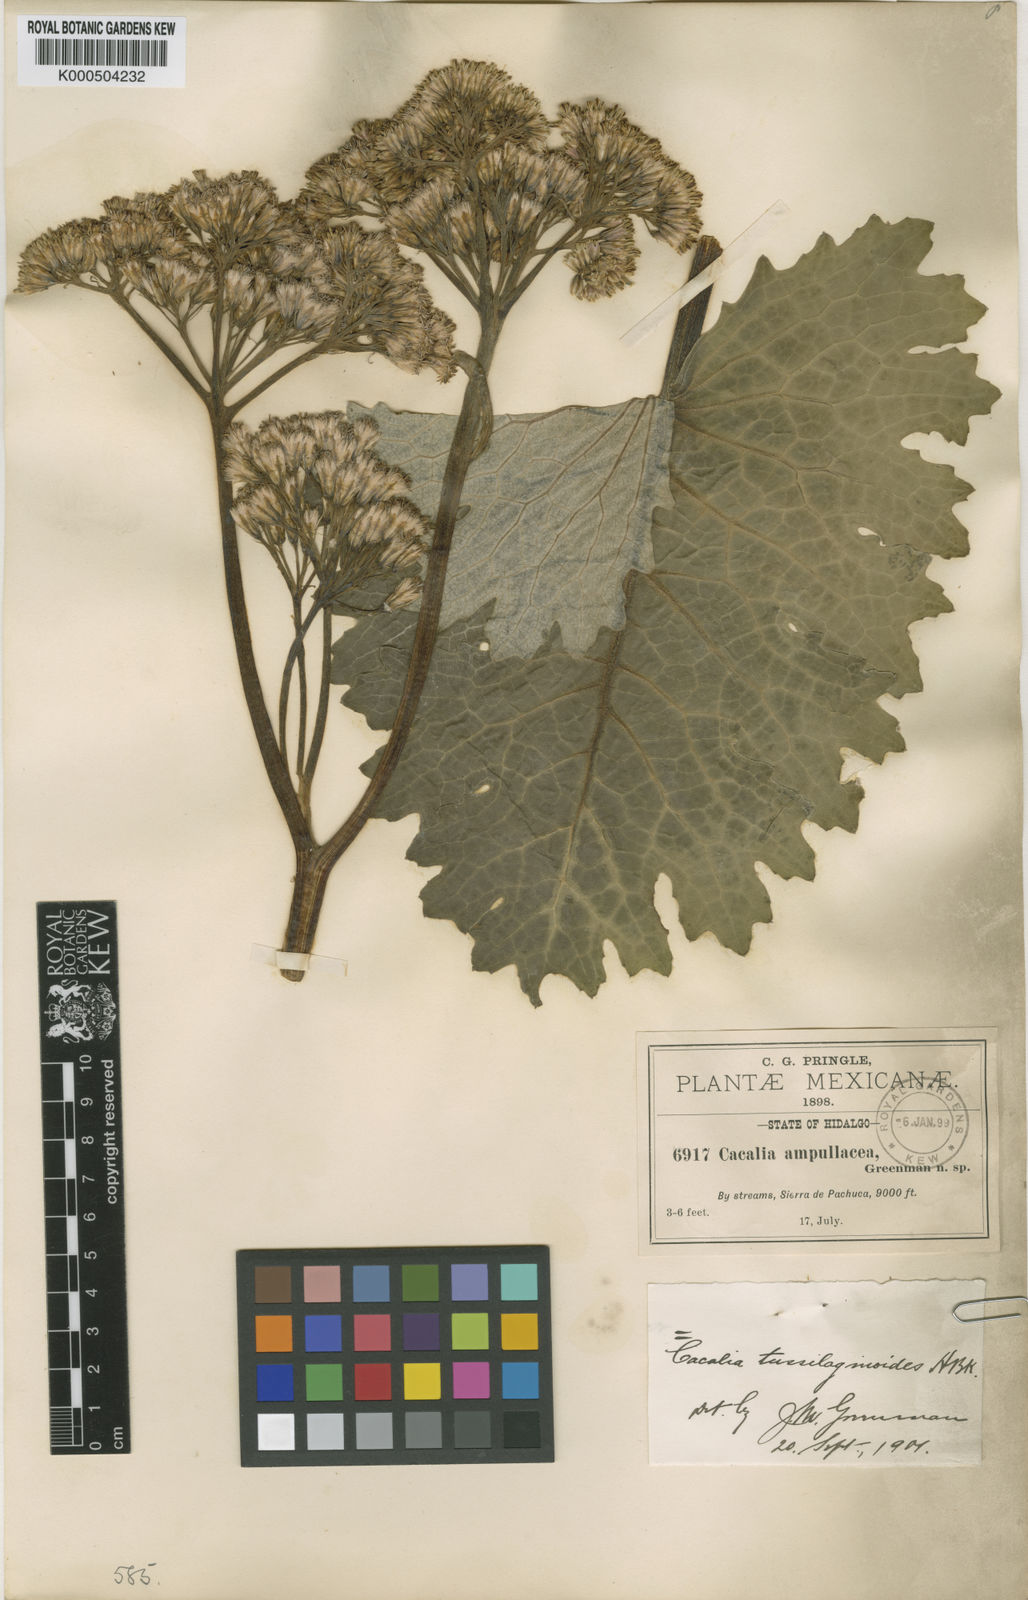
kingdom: Plantae
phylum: Tracheophyta
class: Magnoliopsida
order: Asterales
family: Asteraceae
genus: Psacalium
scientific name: Psacalium tussilaginoides
